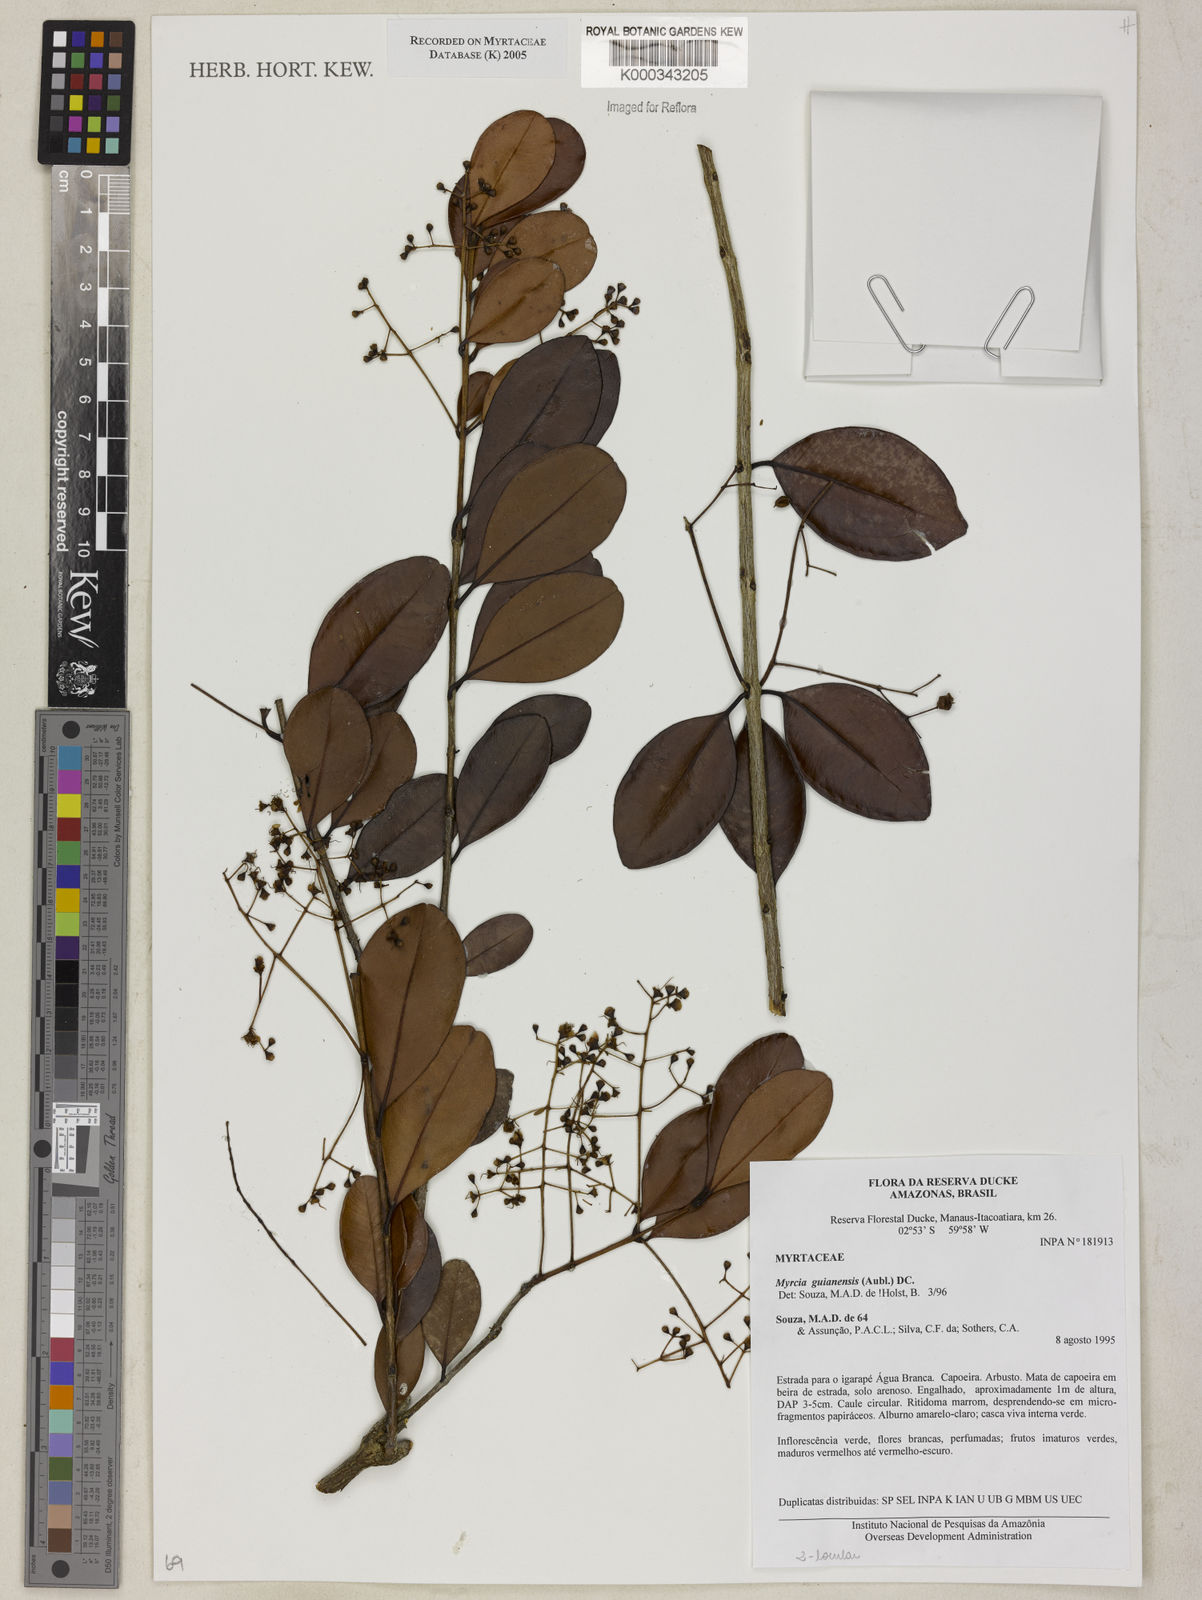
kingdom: Plantae
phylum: Tracheophyta
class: Magnoliopsida
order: Myrtales
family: Myrtaceae
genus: Myrcia
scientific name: Myrcia guianensis
